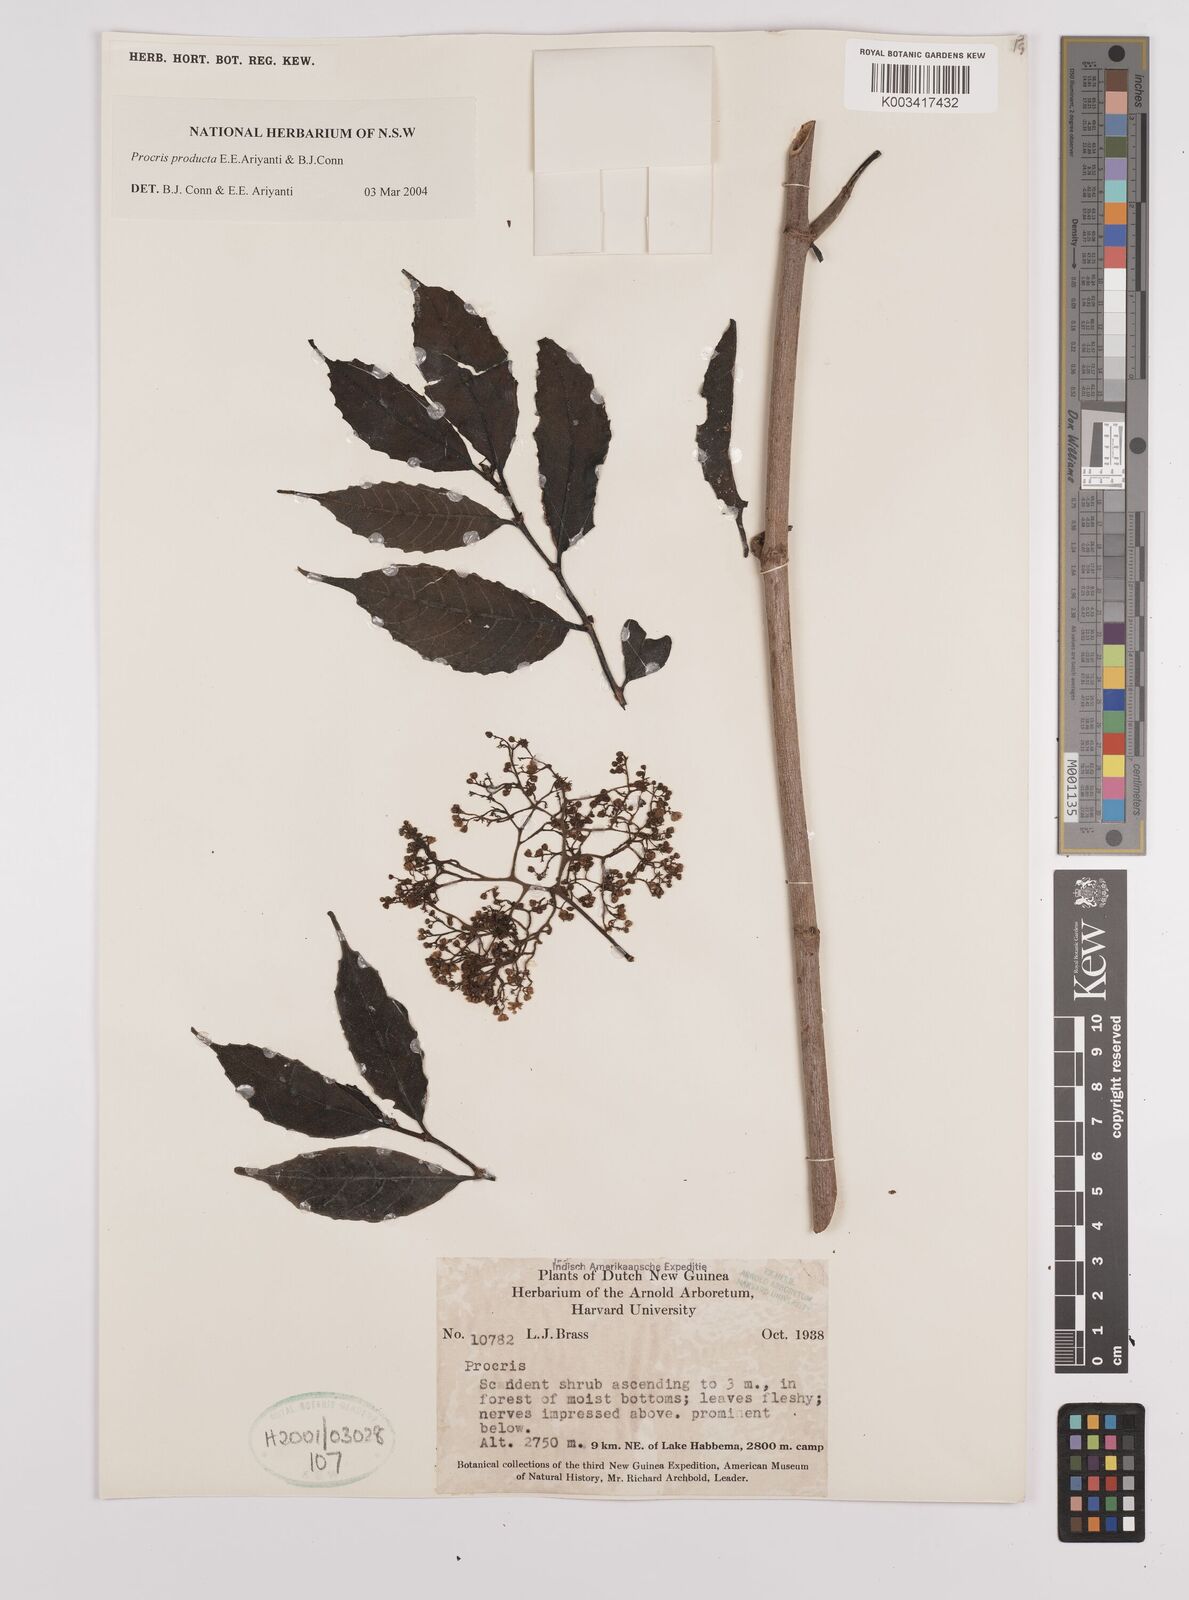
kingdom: Plantae
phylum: Tracheophyta
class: Magnoliopsida
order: Rosales
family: Urticaceae
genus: Procris
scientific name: Procris
